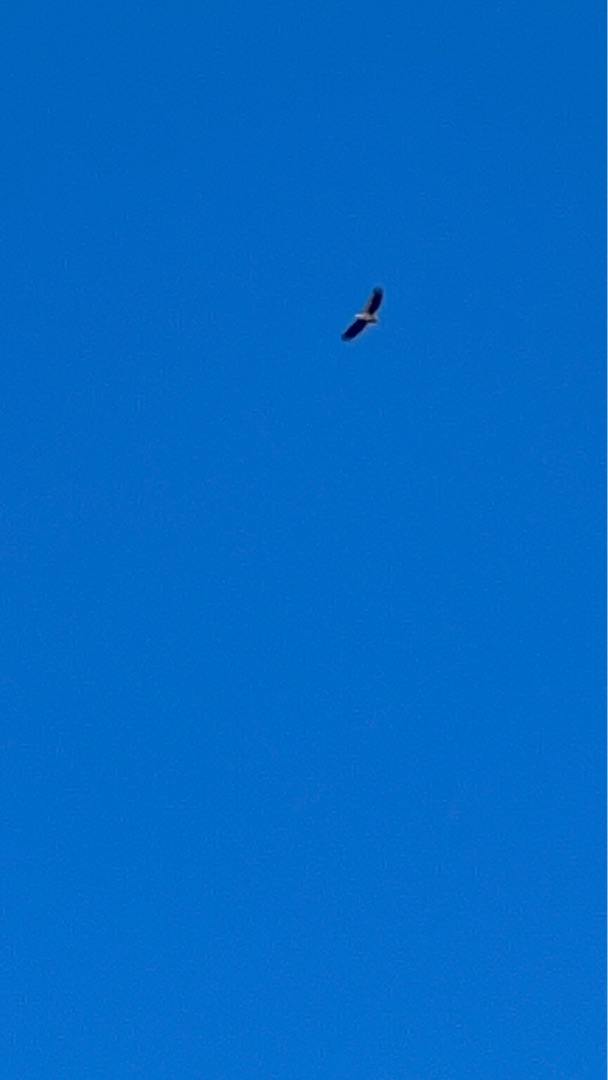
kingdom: Animalia
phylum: Chordata
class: Aves
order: Accipitriformes
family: Accipitridae
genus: Haliaeetus
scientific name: Haliaeetus albicilla
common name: Havørn
